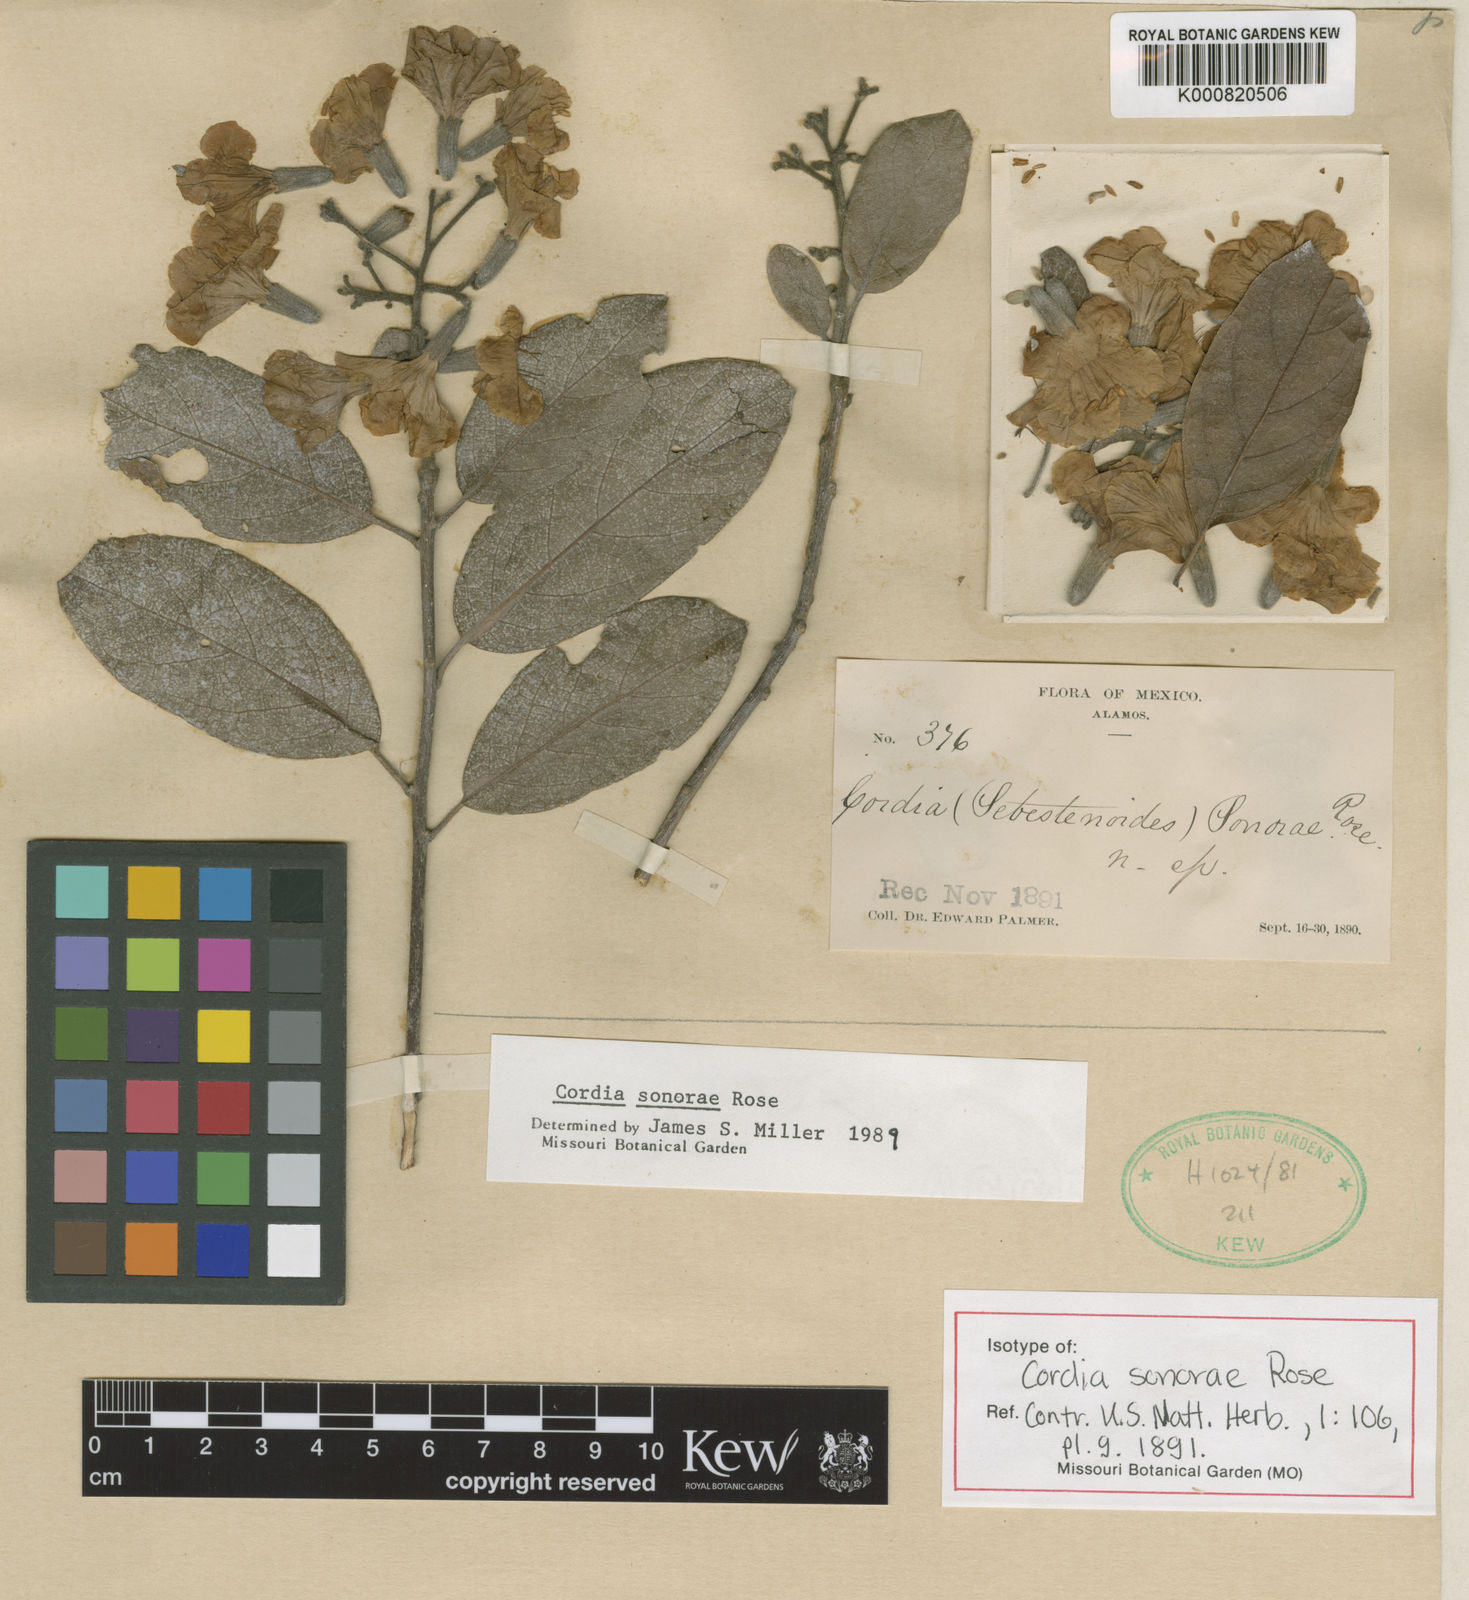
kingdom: Plantae
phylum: Tracheophyta
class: Magnoliopsida
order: Boraginales
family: Cordiaceae
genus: Cordia
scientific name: Cordia sonorae
